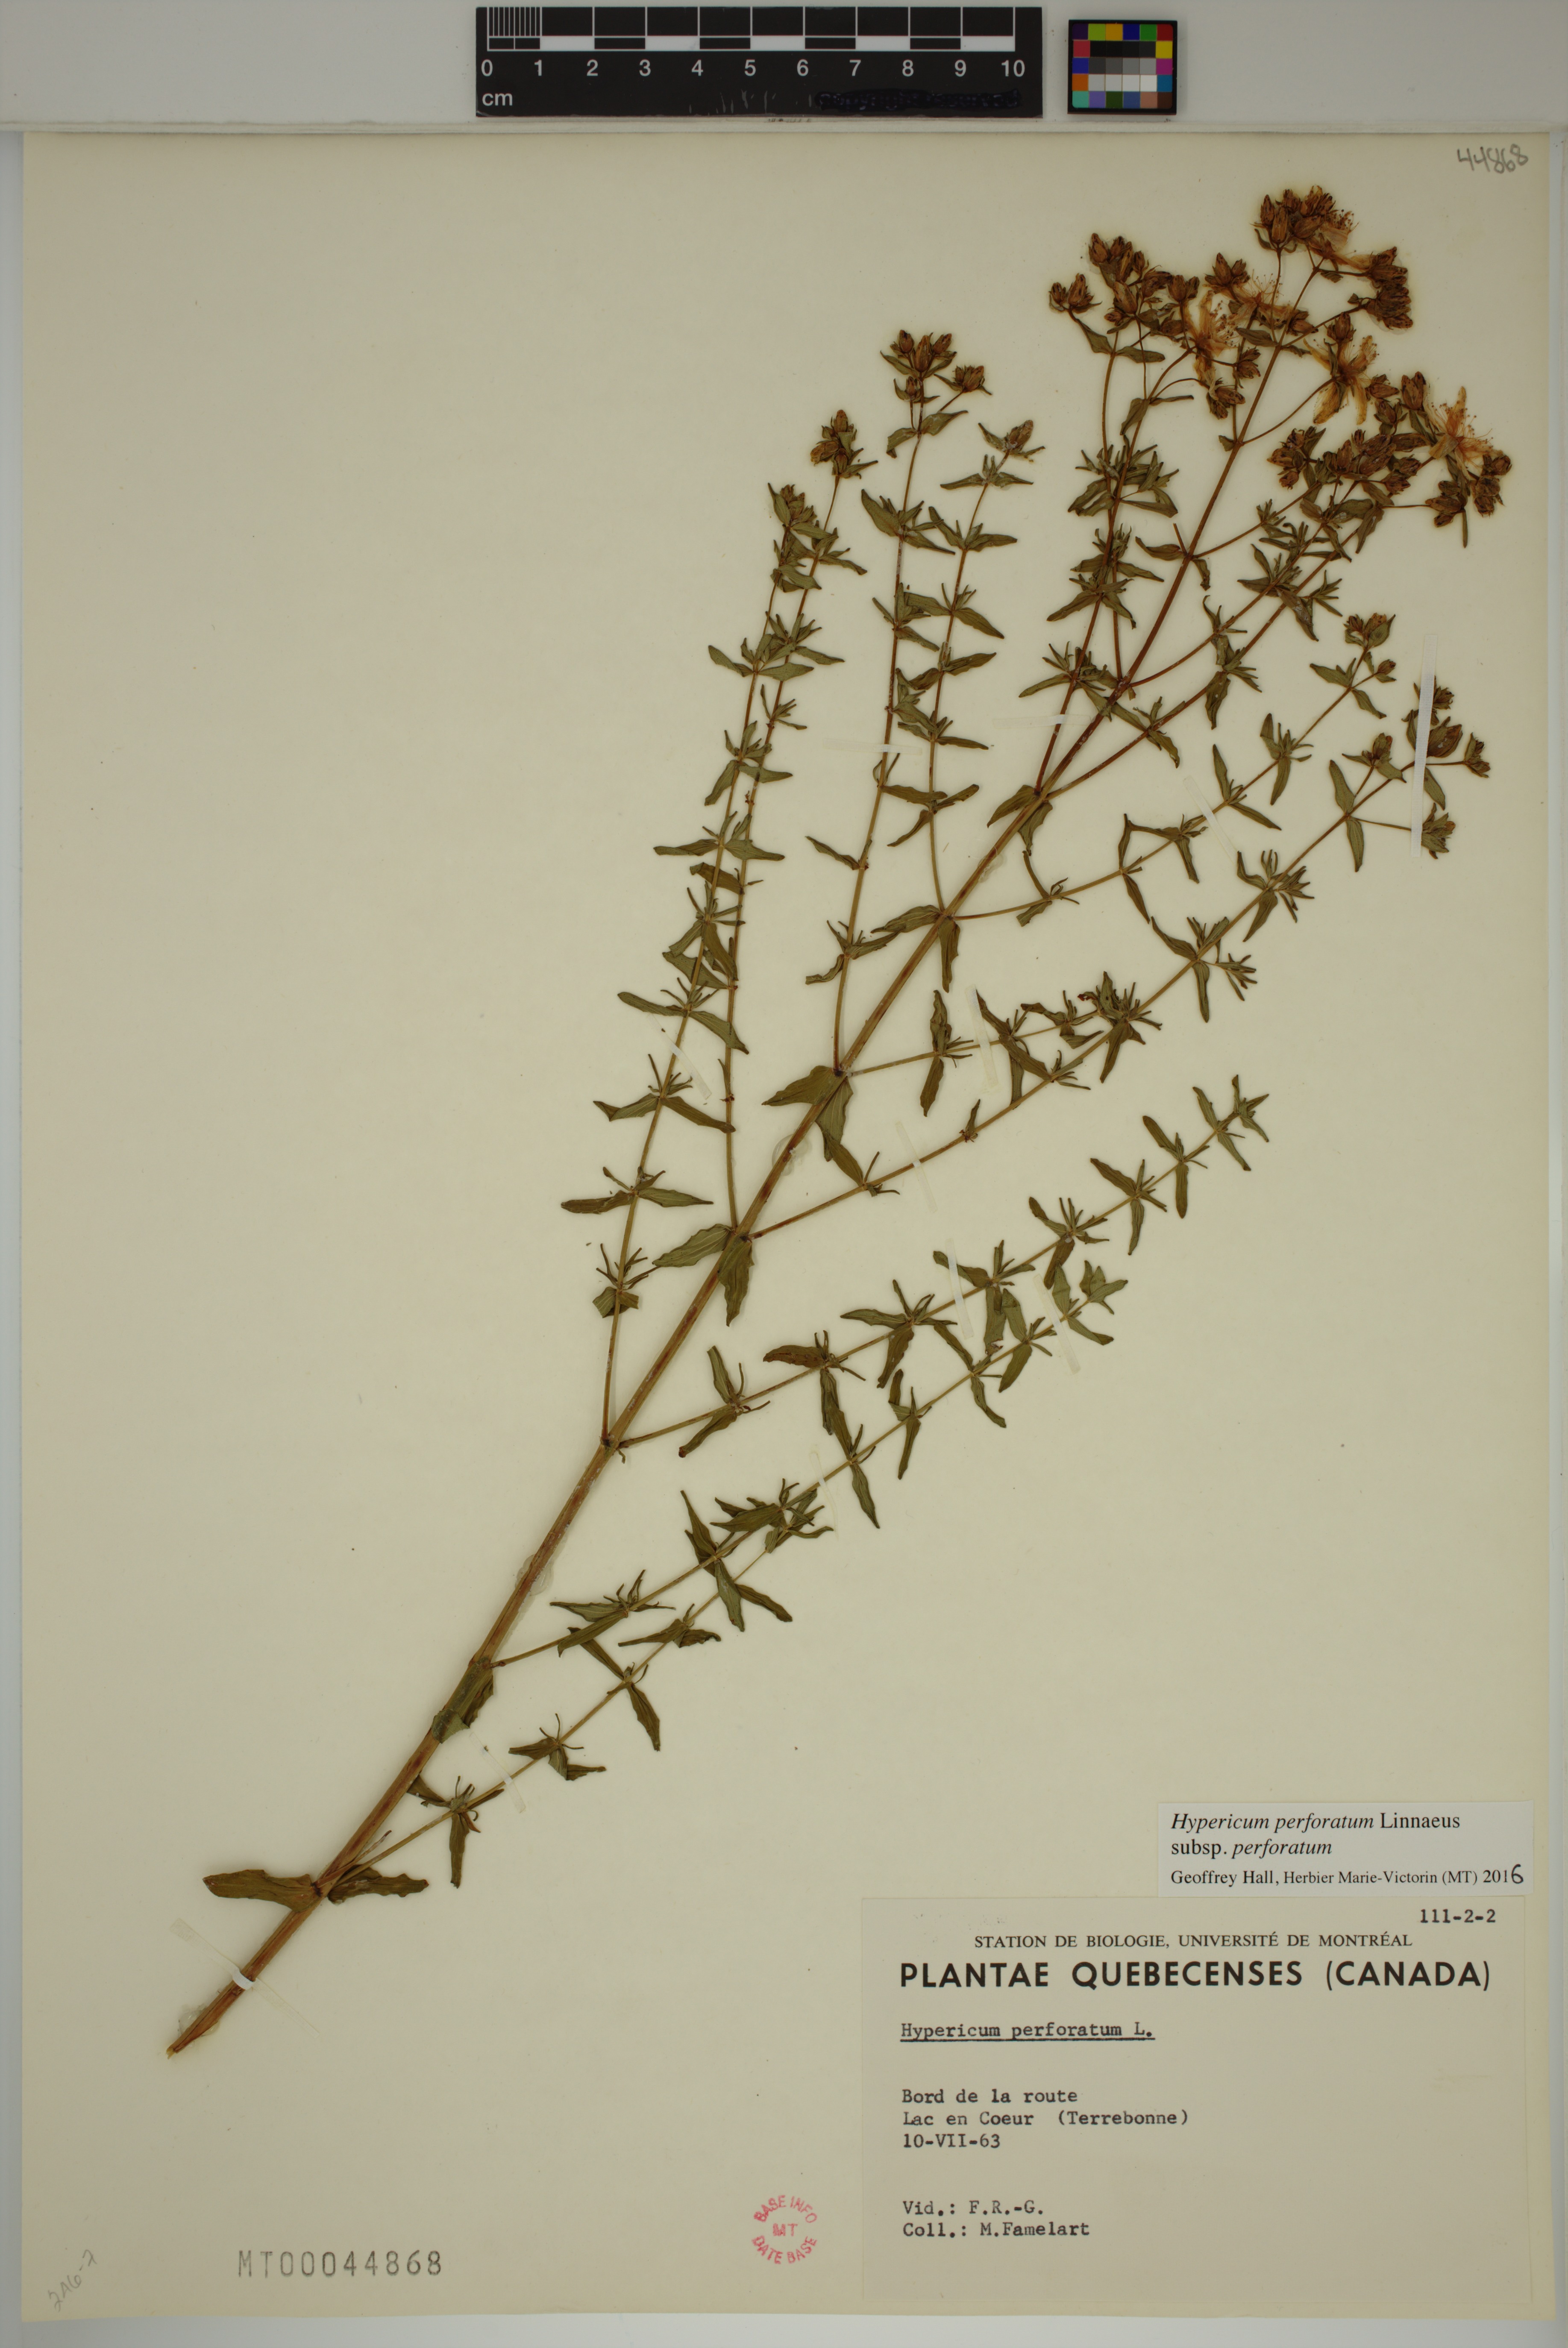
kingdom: Plantae
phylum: Tracheophyta
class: Magnoliopsida
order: Malpighiales
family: Hypericaceae
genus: Hypericum
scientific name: Hypericum perforatum
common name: Common st. johnswort
